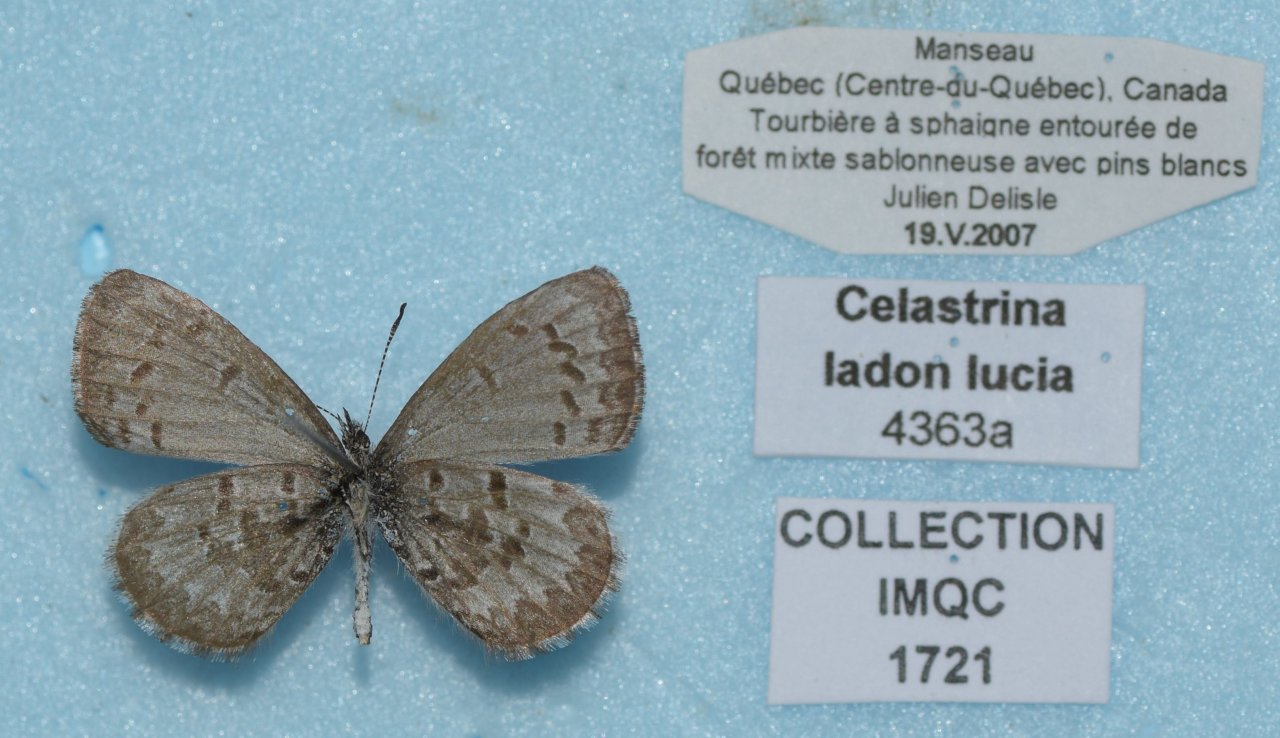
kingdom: Animalia
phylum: Arthropoda
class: Insecta
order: Lepidoptera
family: Lycaenidae
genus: Celastrina
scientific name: Celastrina lucia
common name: Northern Spring Azure
